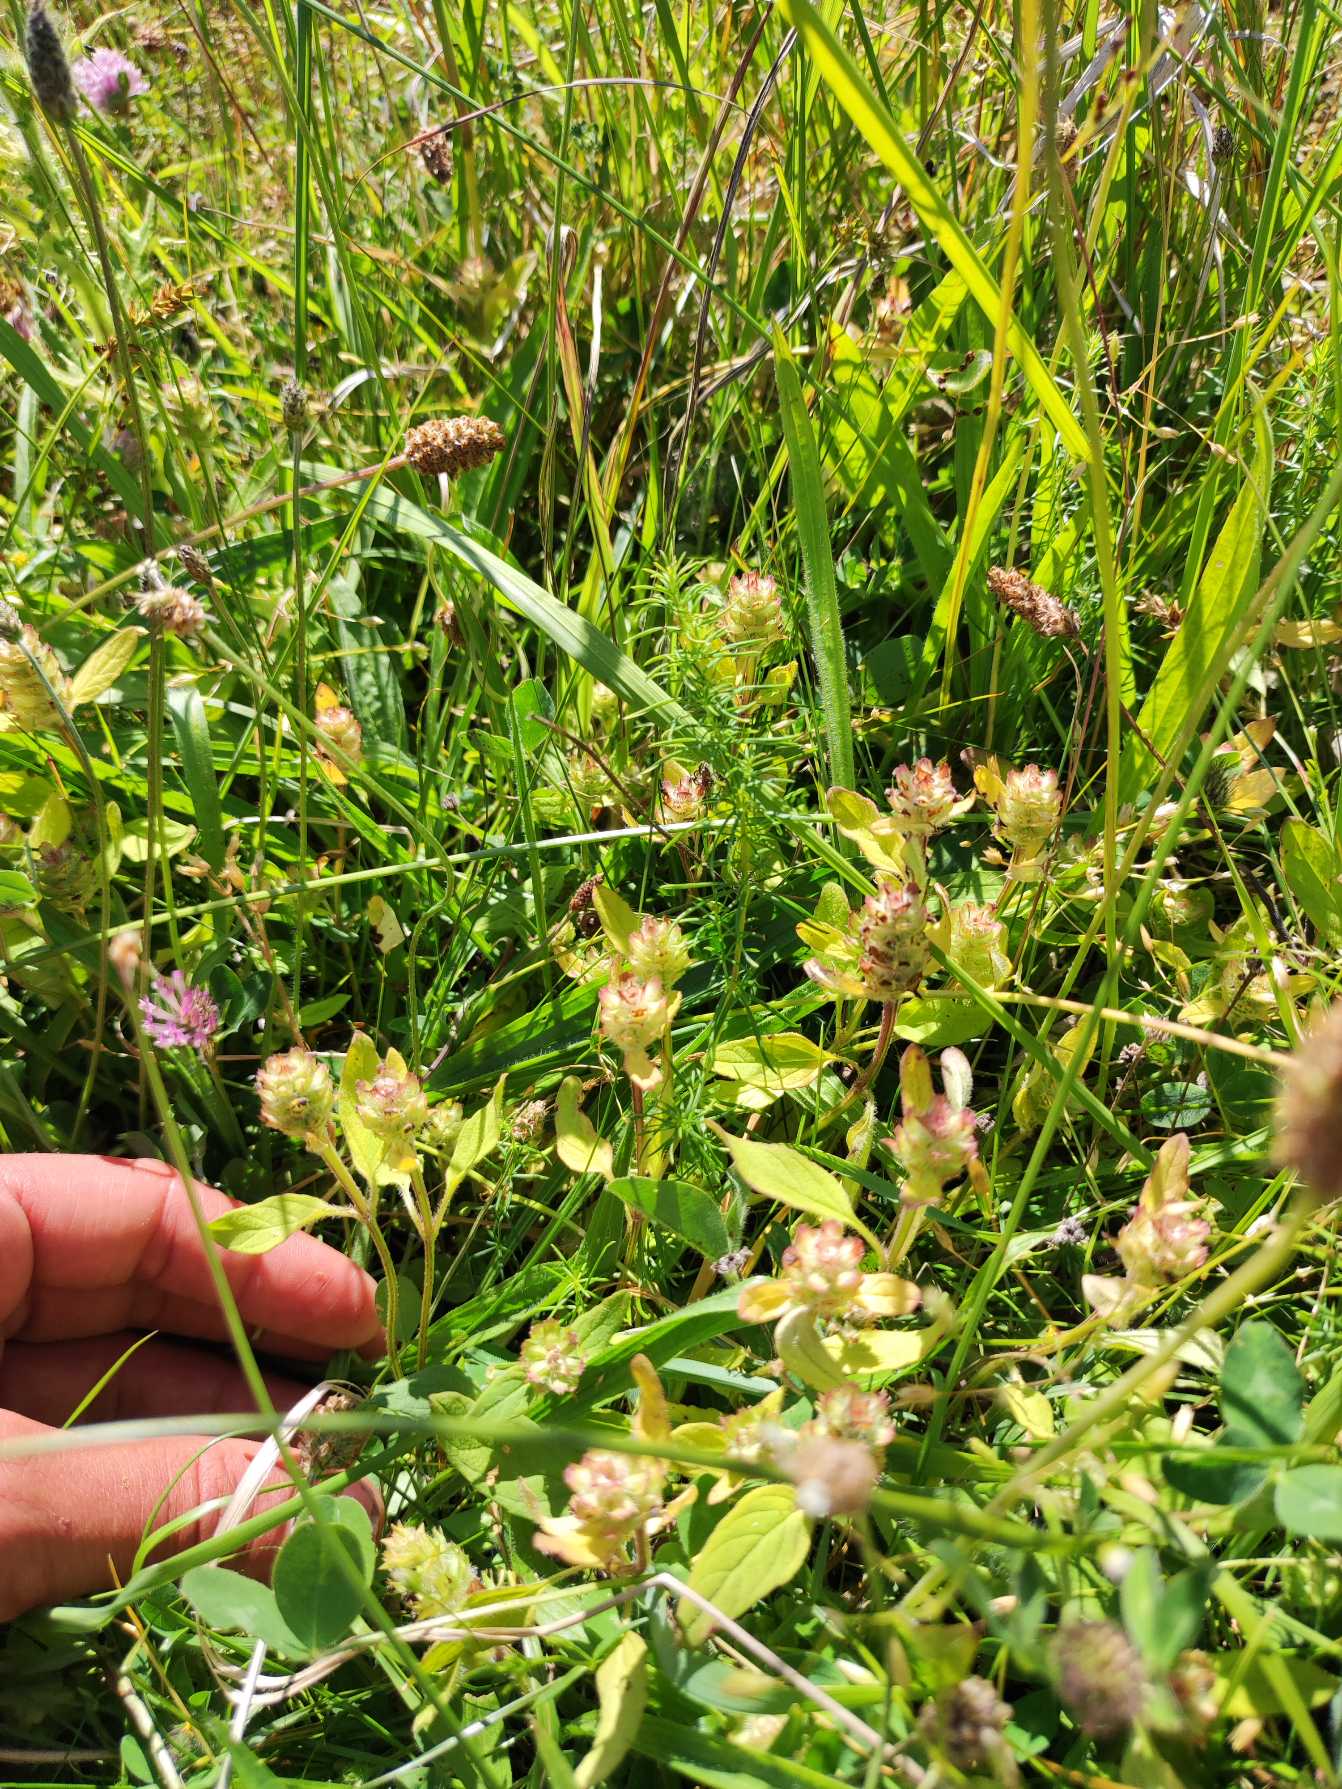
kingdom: Plantae
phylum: Tracheophyta
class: Magnoliopsida
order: Lamiales
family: Lamiaceae
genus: Prunella
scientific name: Prunella vulgaris
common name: Almindelig brunelle
